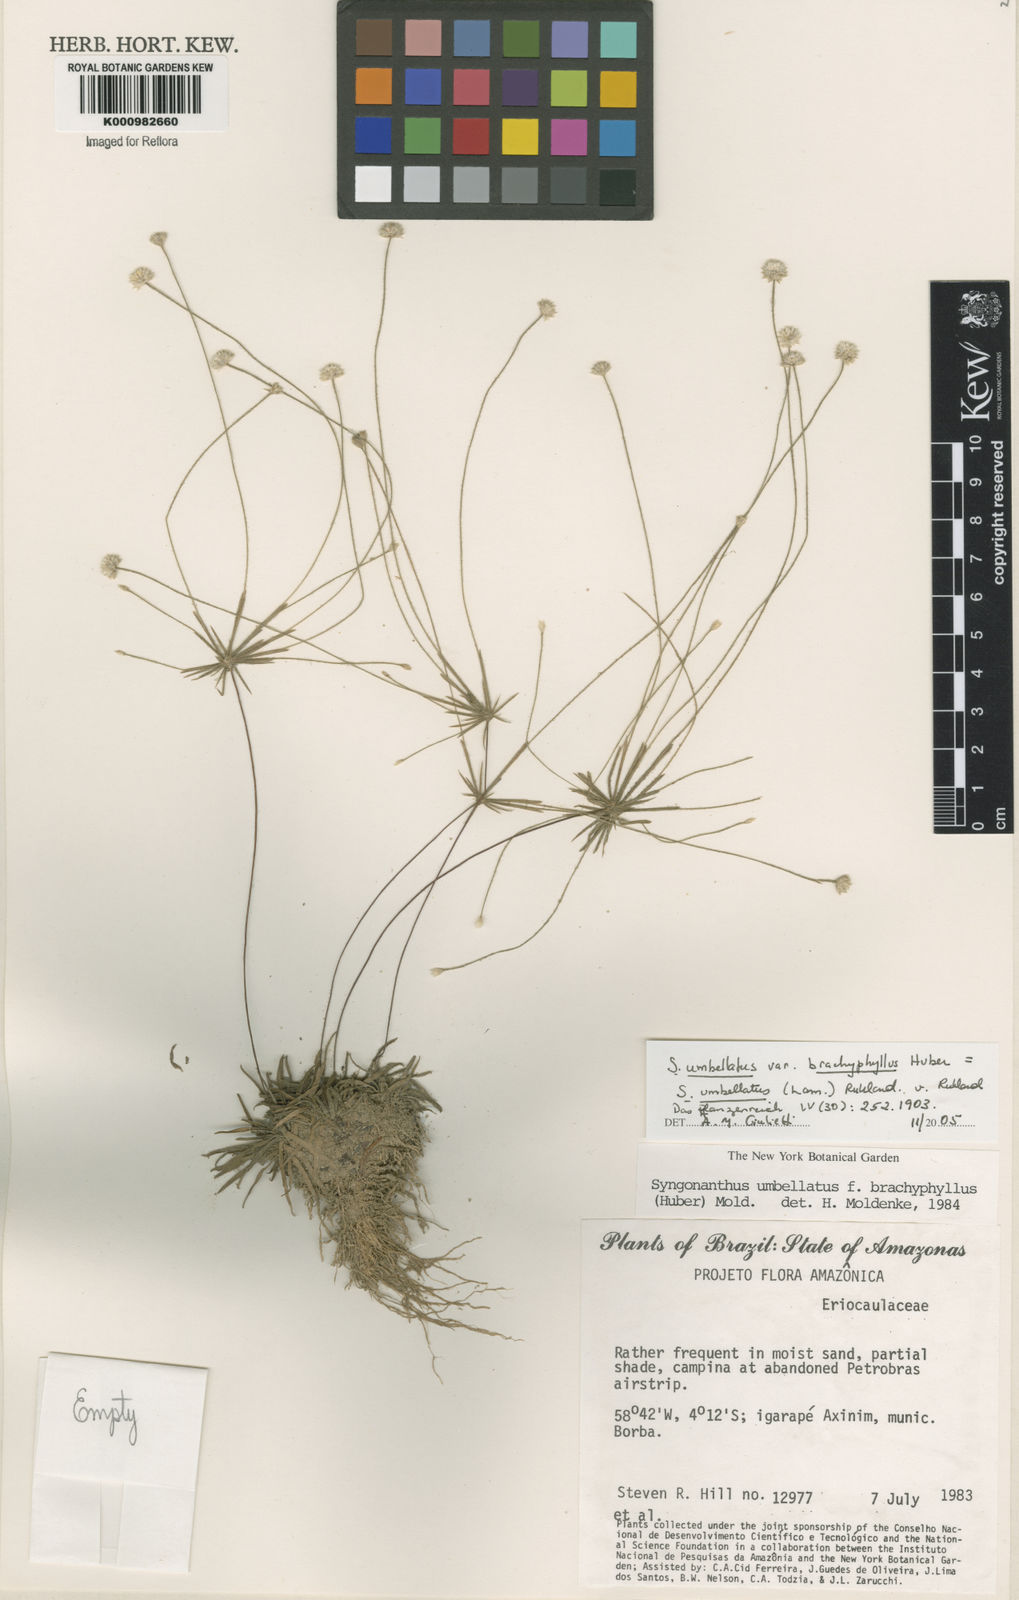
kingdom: Plantae
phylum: Tracheophyta
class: Liliopsida
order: Poales
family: Eriocaulaceae
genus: Syngonanthus
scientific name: Syngonanthus umbellatus
